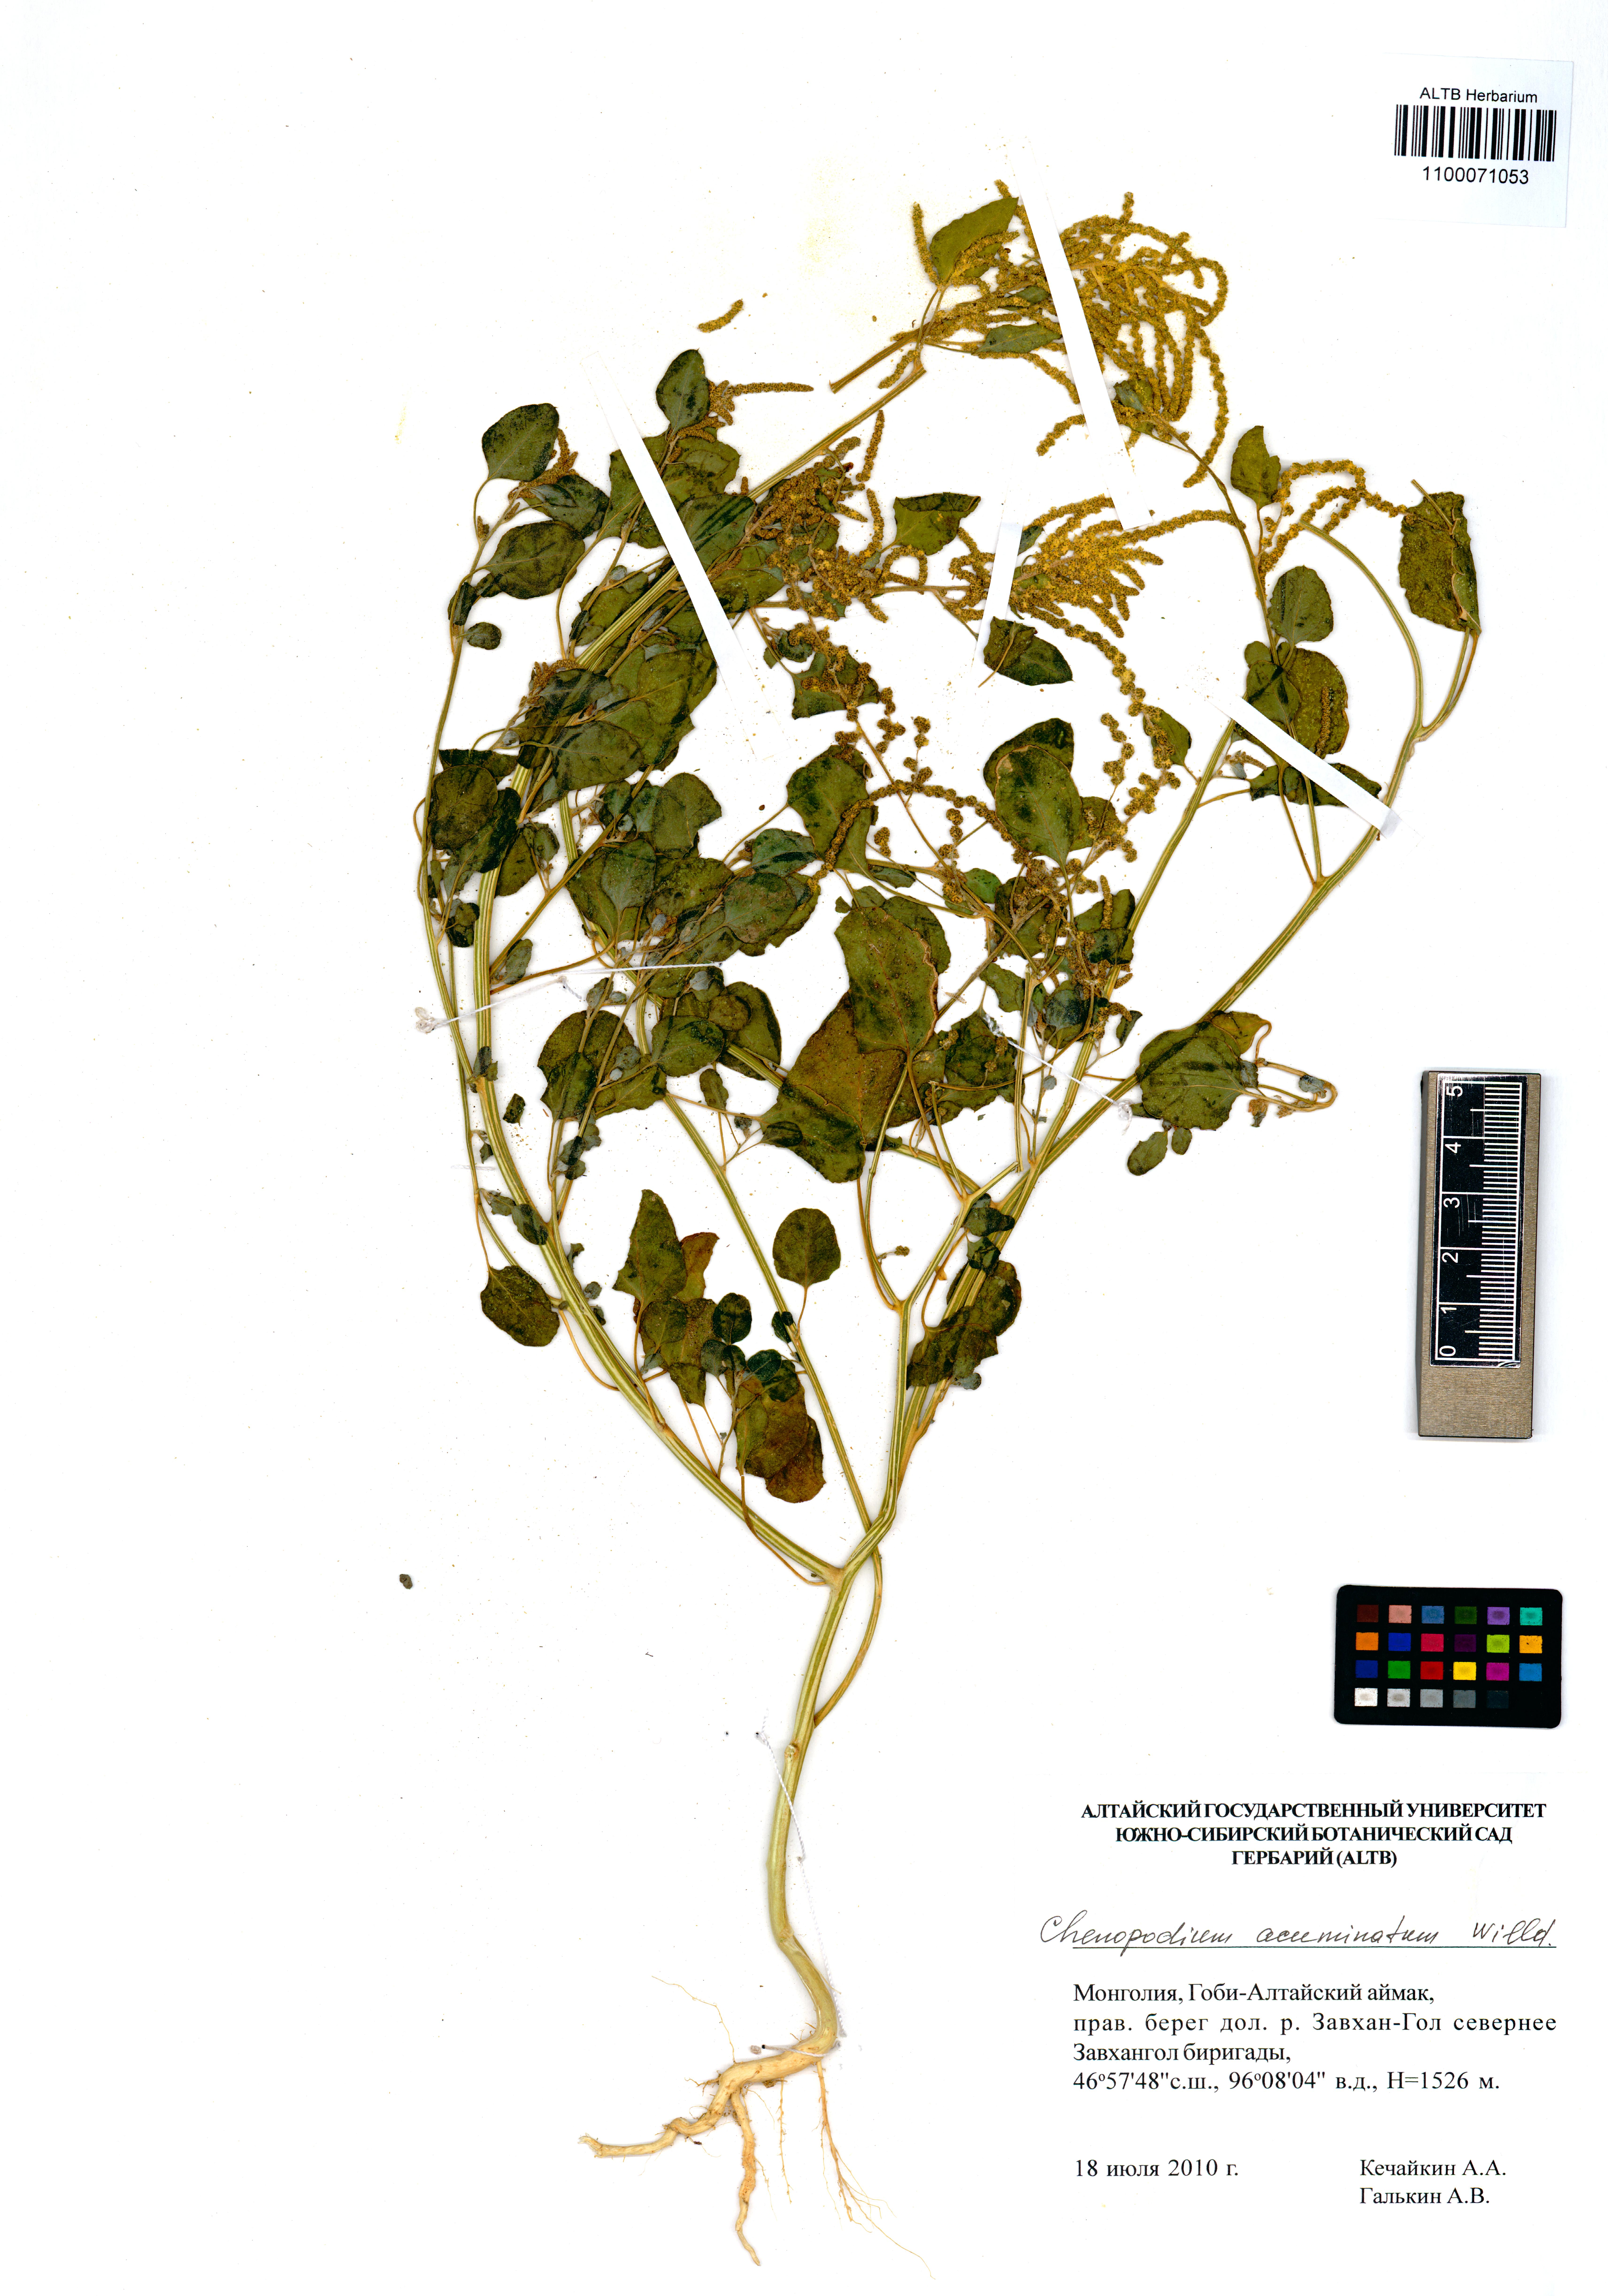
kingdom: Plantae
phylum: Tracheophyta
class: Magnoliopsida
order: Caryophyllales
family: Amaranthaceae
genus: Oxybasis
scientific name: Oxybasis rubra
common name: Red goosefoot
